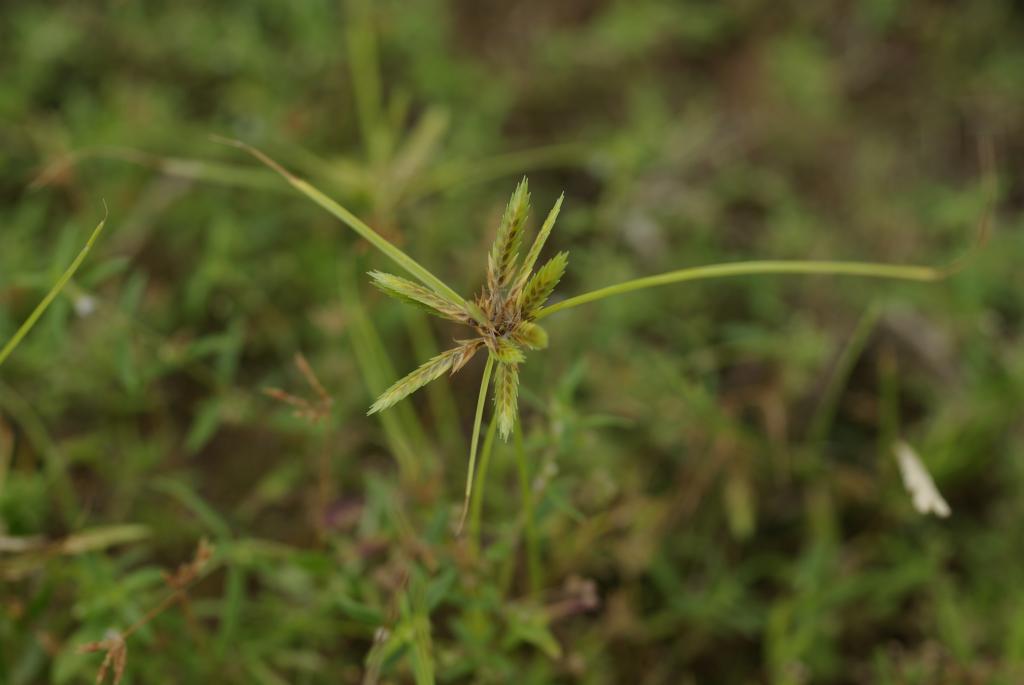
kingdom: Plantae
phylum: Tracheophyta
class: Liliopsida
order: Poales
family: Cyperaceae
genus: Cyperus
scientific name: Cyperus compressus
